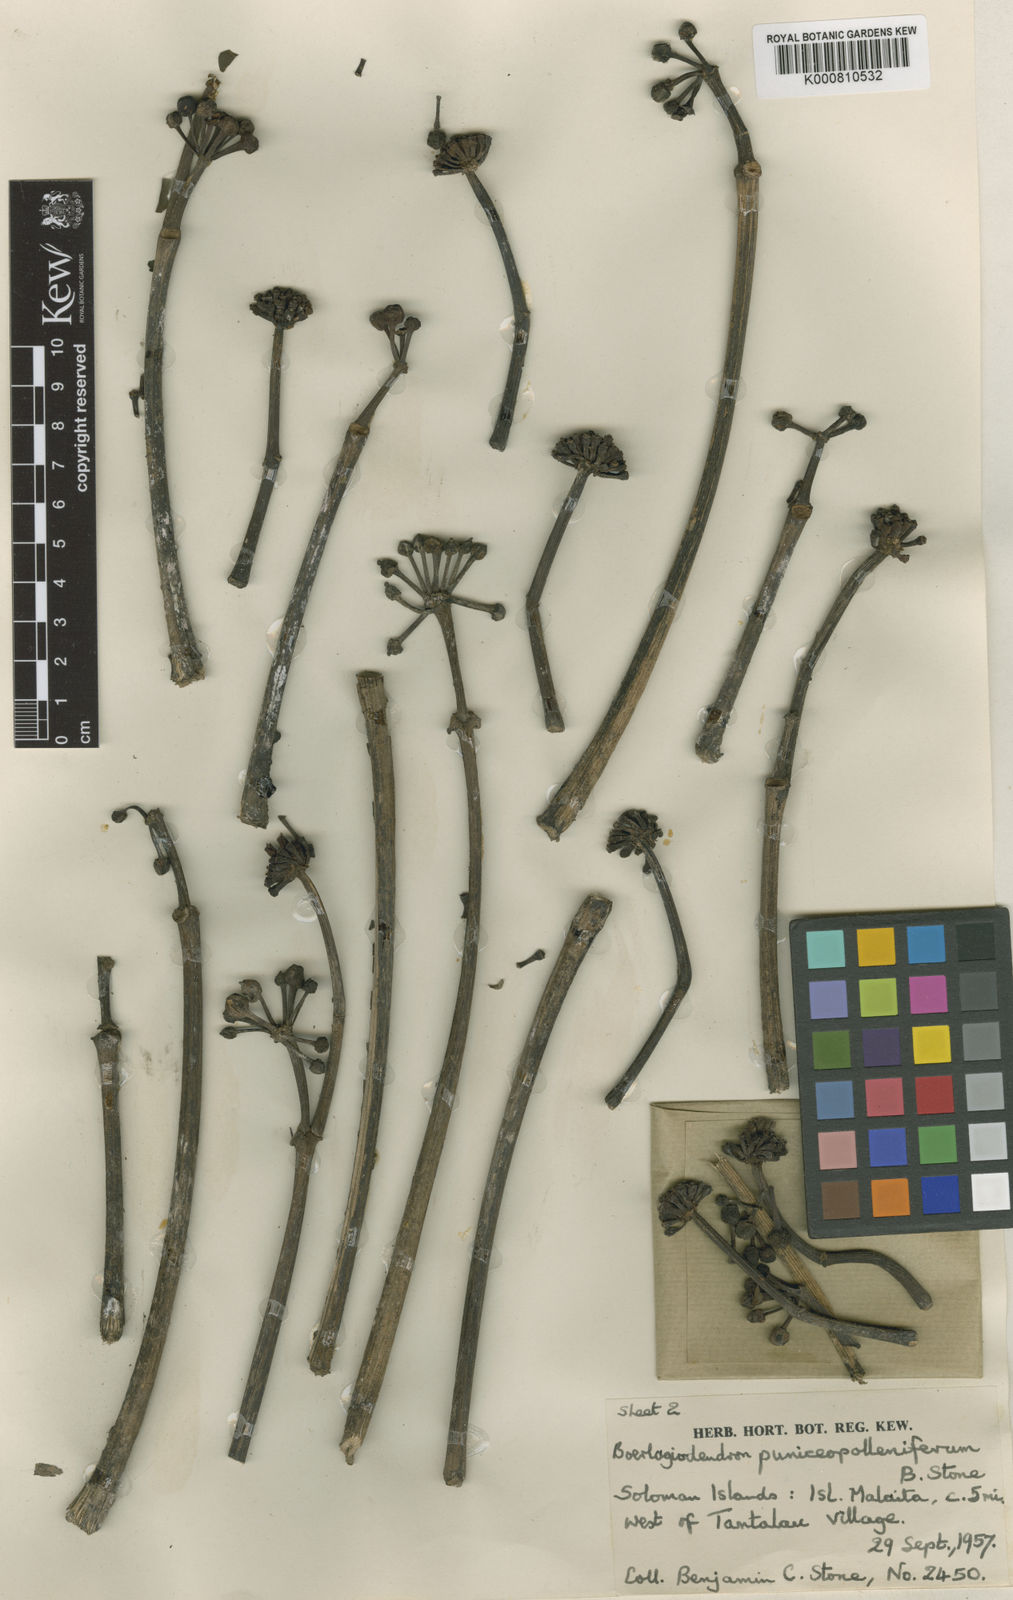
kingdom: Plantae
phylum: Tracheophyta
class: Magnoliopsida
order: Apiales
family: Araliaceae
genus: Osmoxylon
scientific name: Osmoxylon puniceopolleniferum
